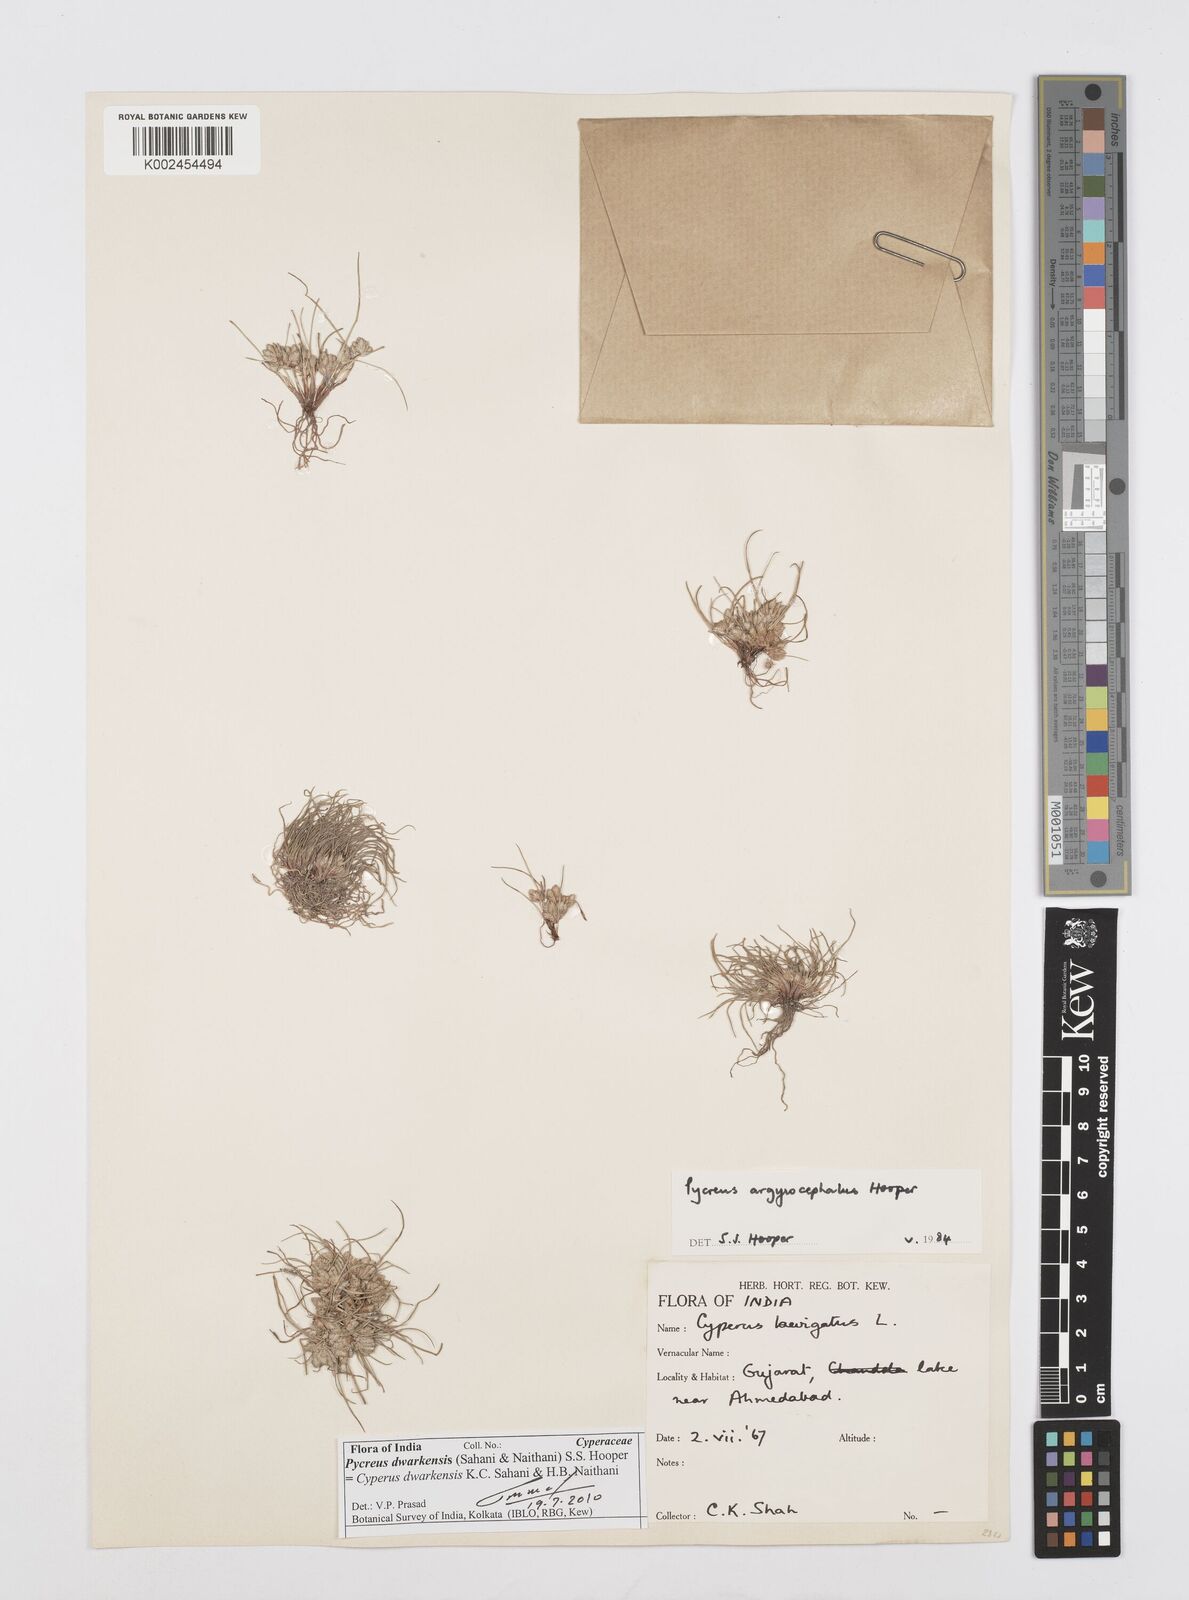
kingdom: Plantae
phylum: Tracheophyta
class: Liliopsida
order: Poales
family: Cyperaceae
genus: Cyperus
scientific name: Cyperus dwarkensis
